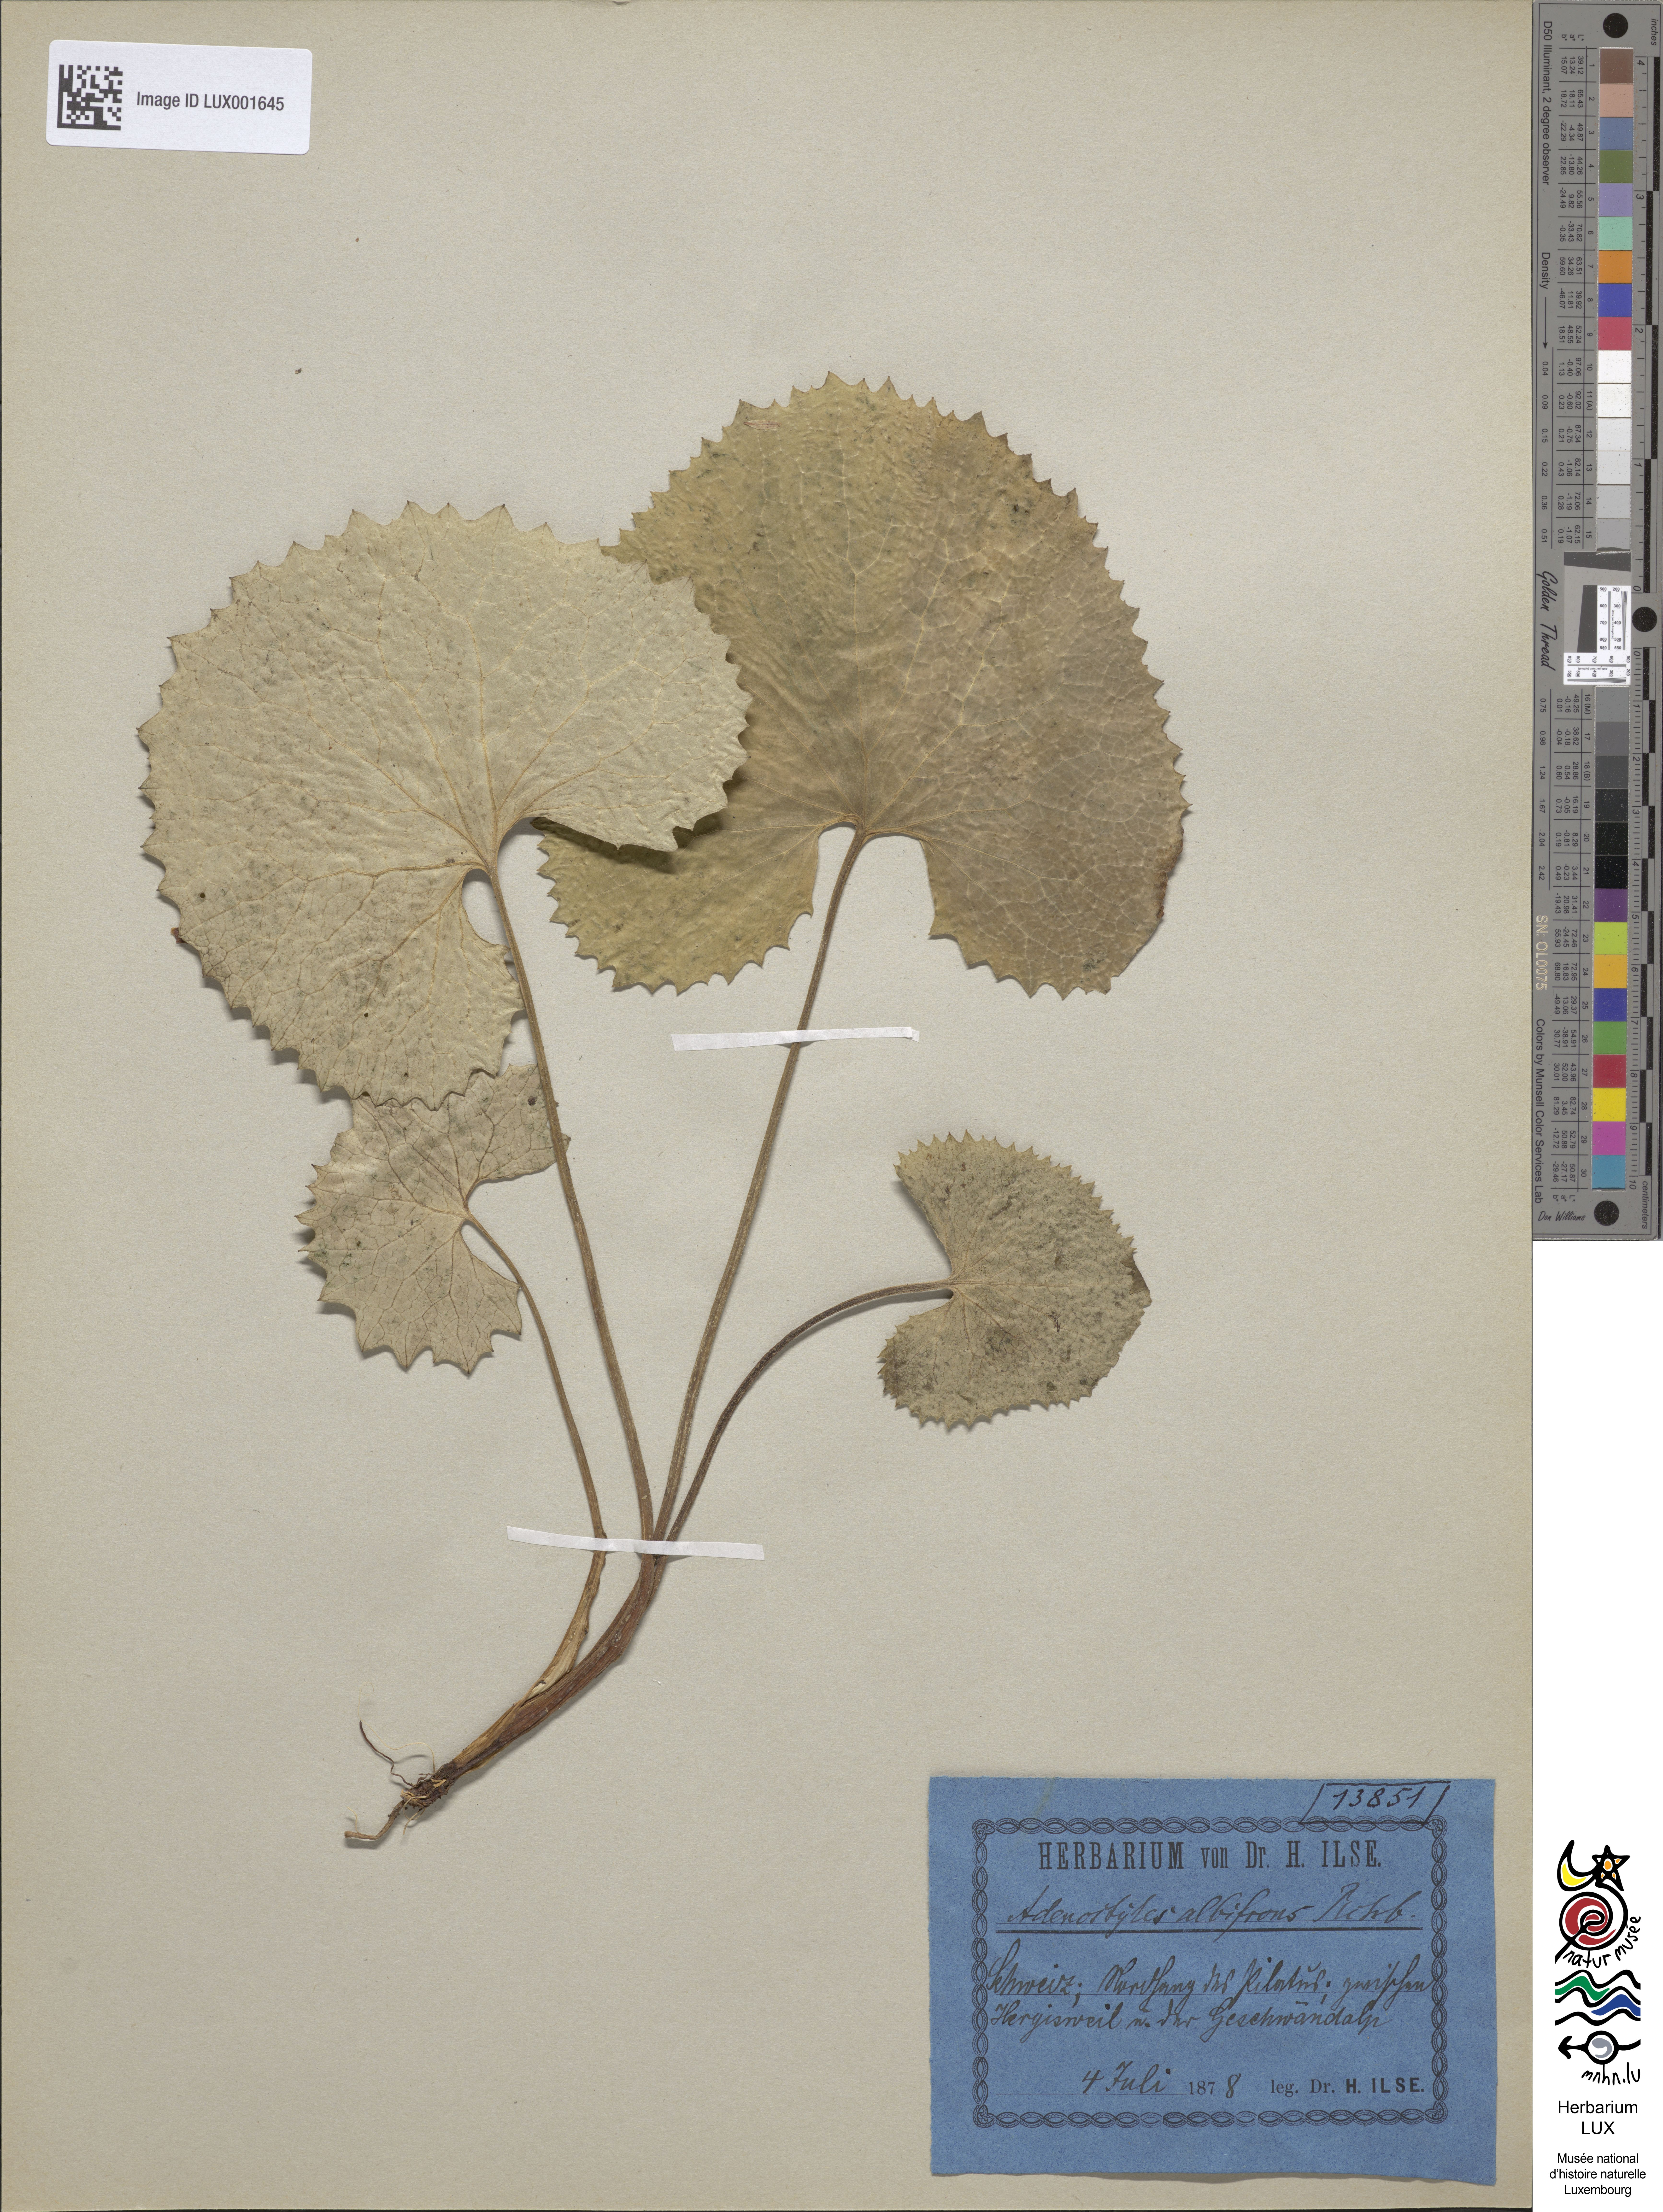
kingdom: Plantae
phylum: Tracheophyta
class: Magnoliopsida
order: Asterales
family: Asteraceae
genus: Adenostyles
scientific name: Adenostyles alliariae
